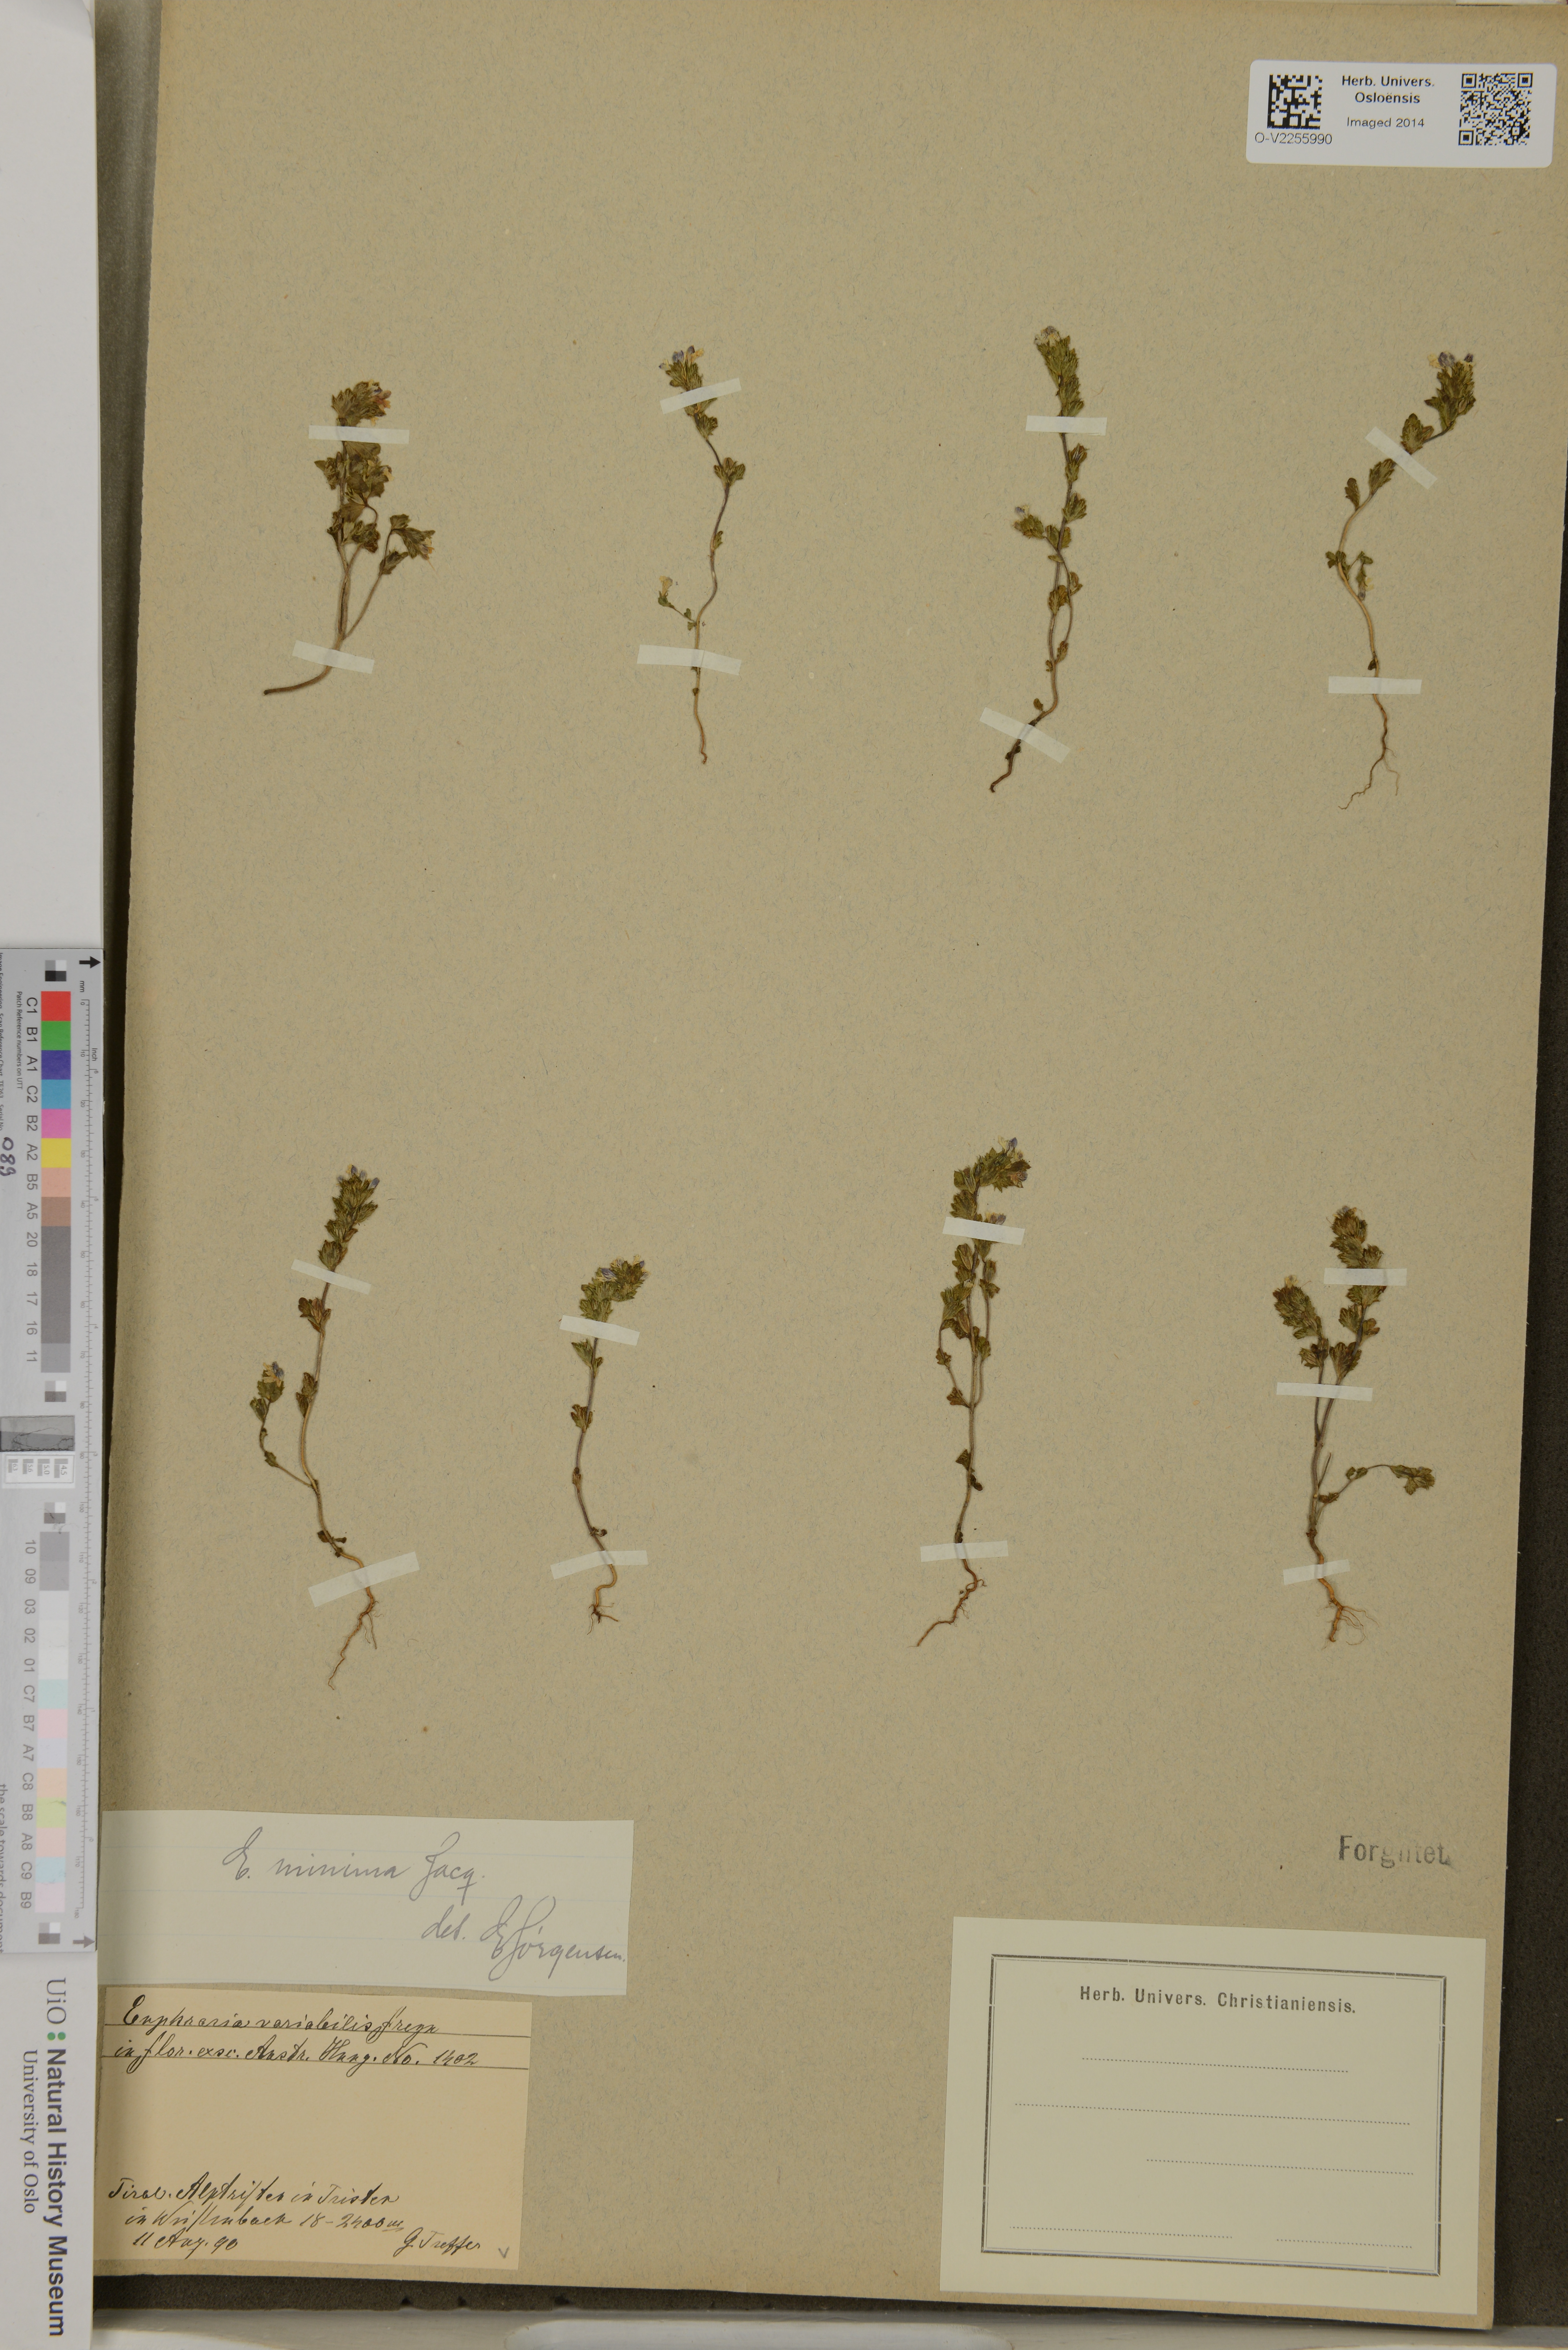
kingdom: Plantae
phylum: Tracheophyta
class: Magnoliopsida
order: Lamiales
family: Orobanchaceae
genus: Euphrasia
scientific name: Euphrasia minima
